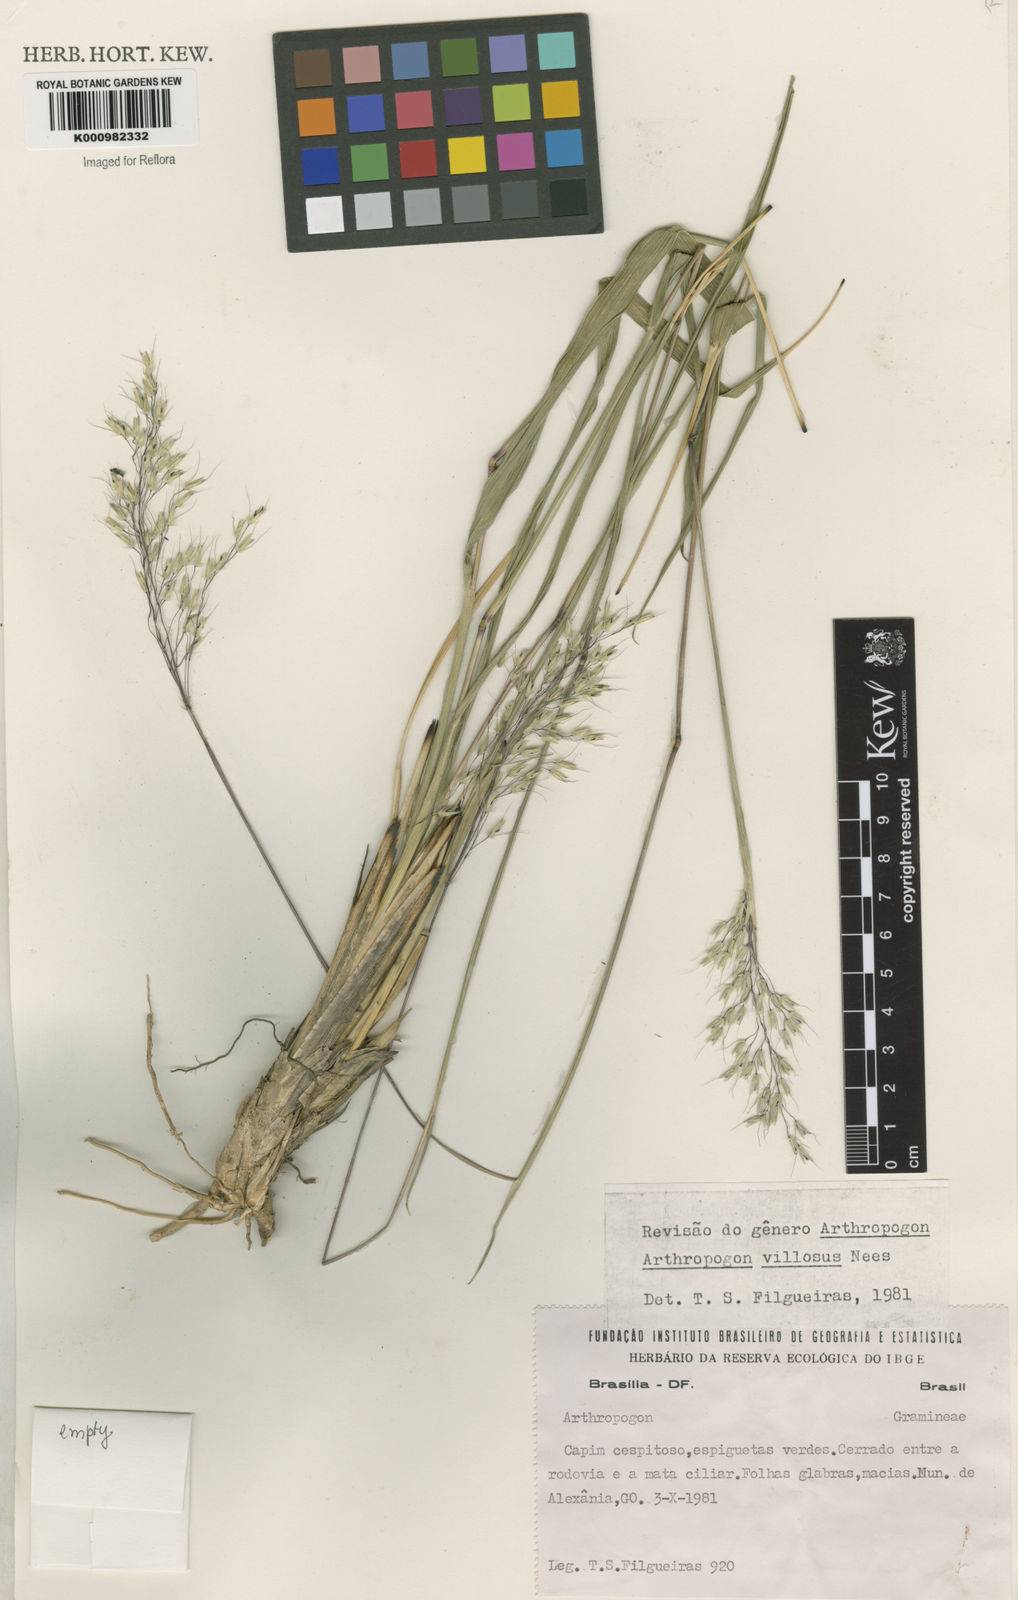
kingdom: Plantae
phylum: Tracheophyta
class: Liliopsida
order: Poales
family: Poaceae
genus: Arthropogon
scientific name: Arthropogon villosus
